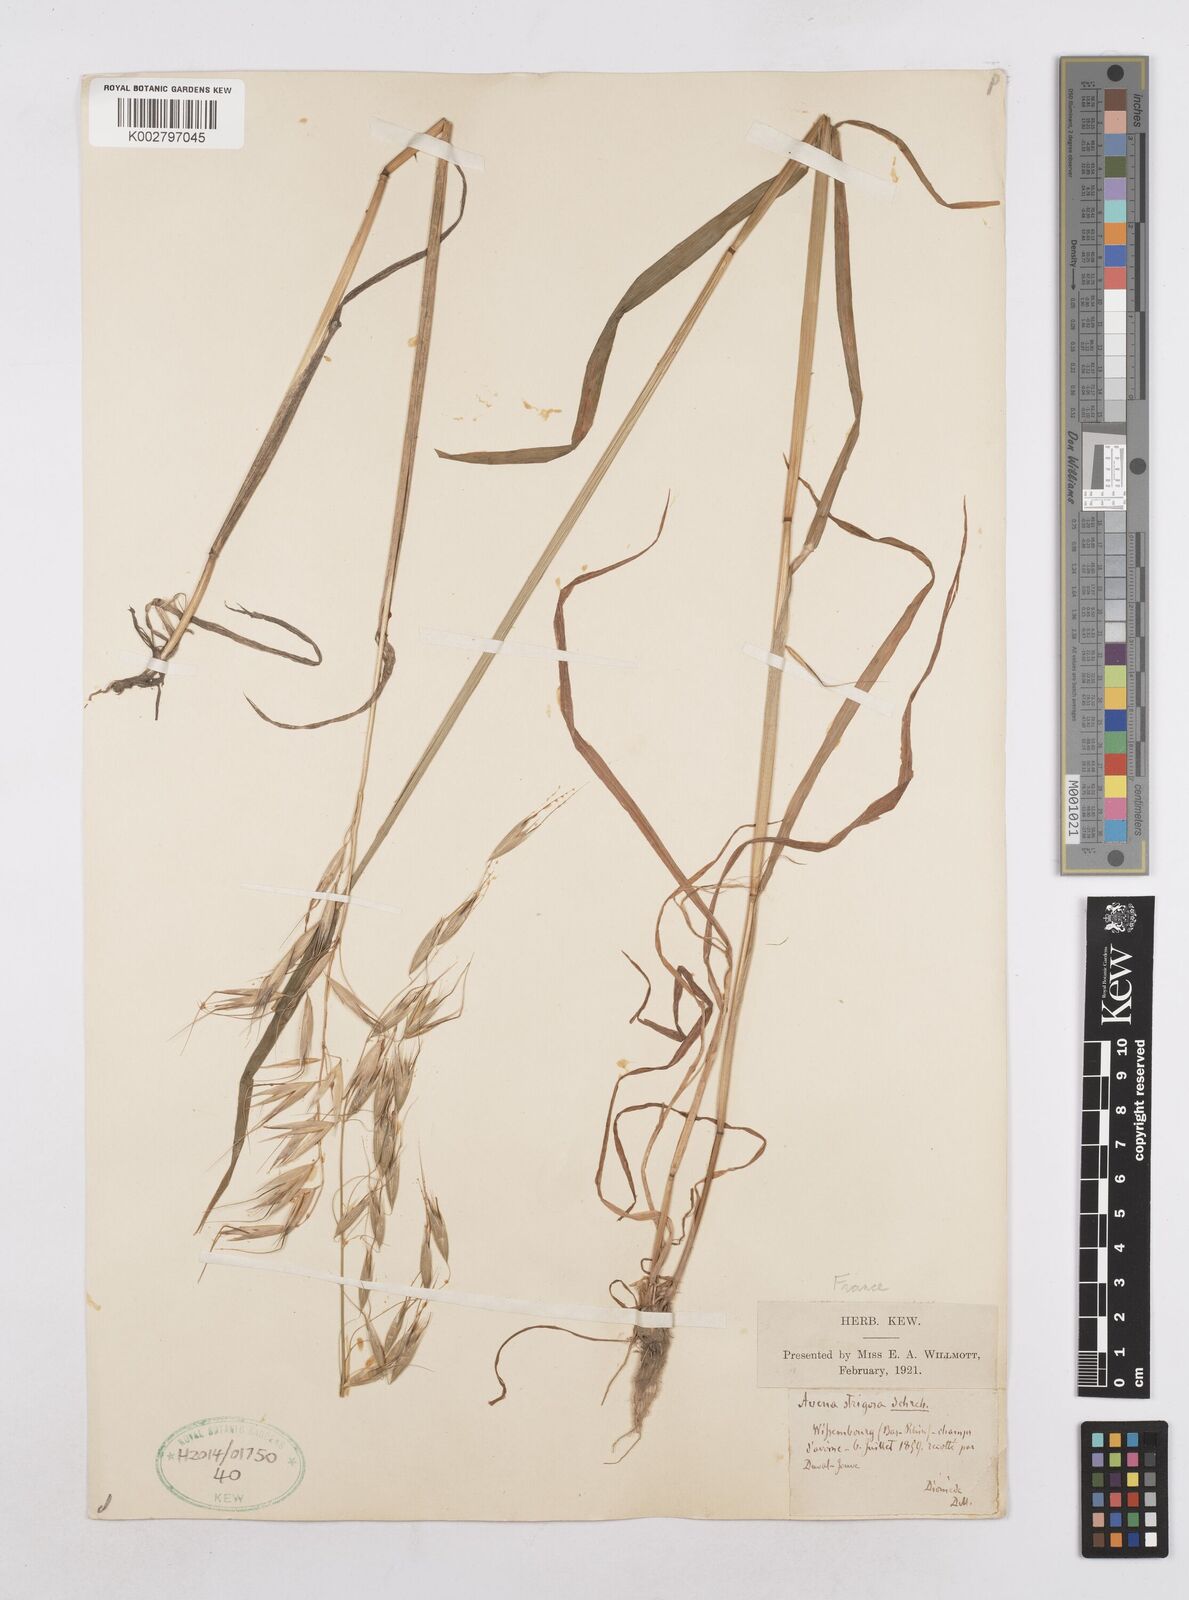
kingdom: Plantae
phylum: Tracheophyta
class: Liliopsida
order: Poales
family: Poaceae
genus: Avena
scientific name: Avena strigosa
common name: Bristle oat
